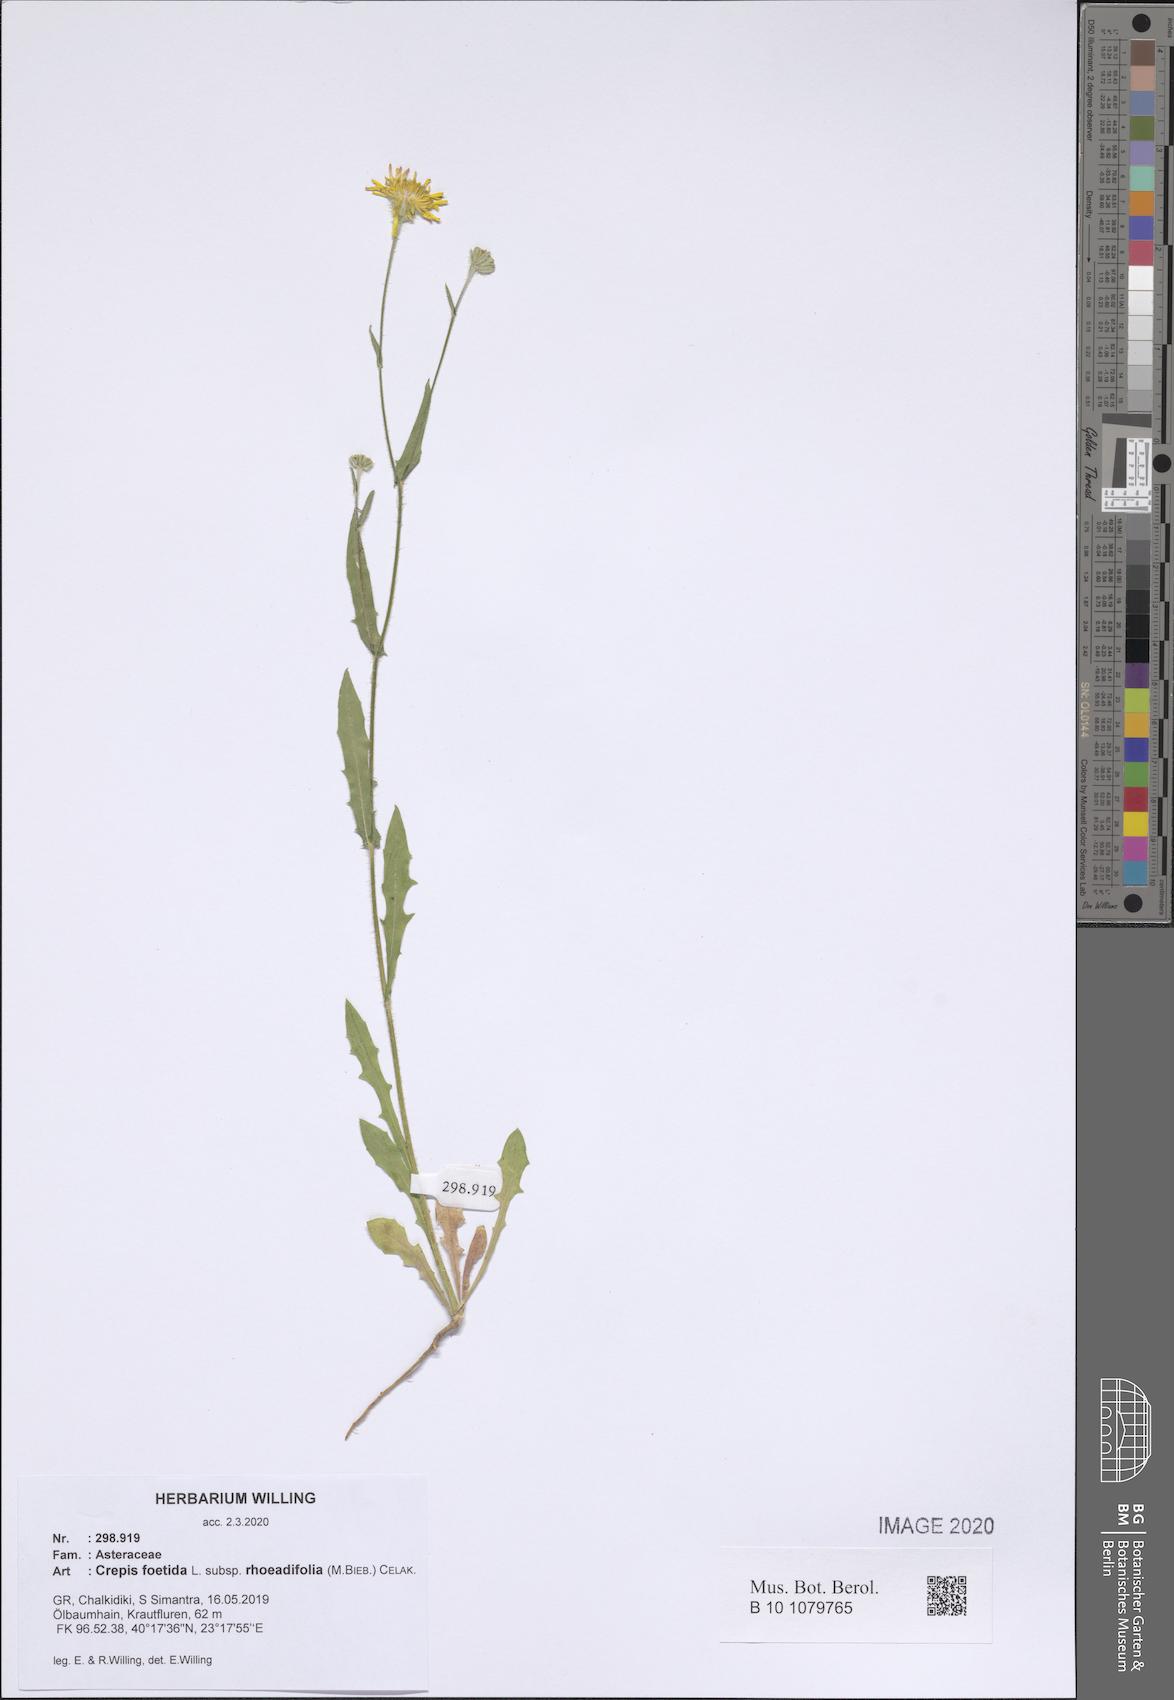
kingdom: Plantae
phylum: Tracheophyta
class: Magnoliopsida
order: Asterales
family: Asteraceae
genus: Crepis
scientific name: Crepis foetida
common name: Stinking hawk's-beard
